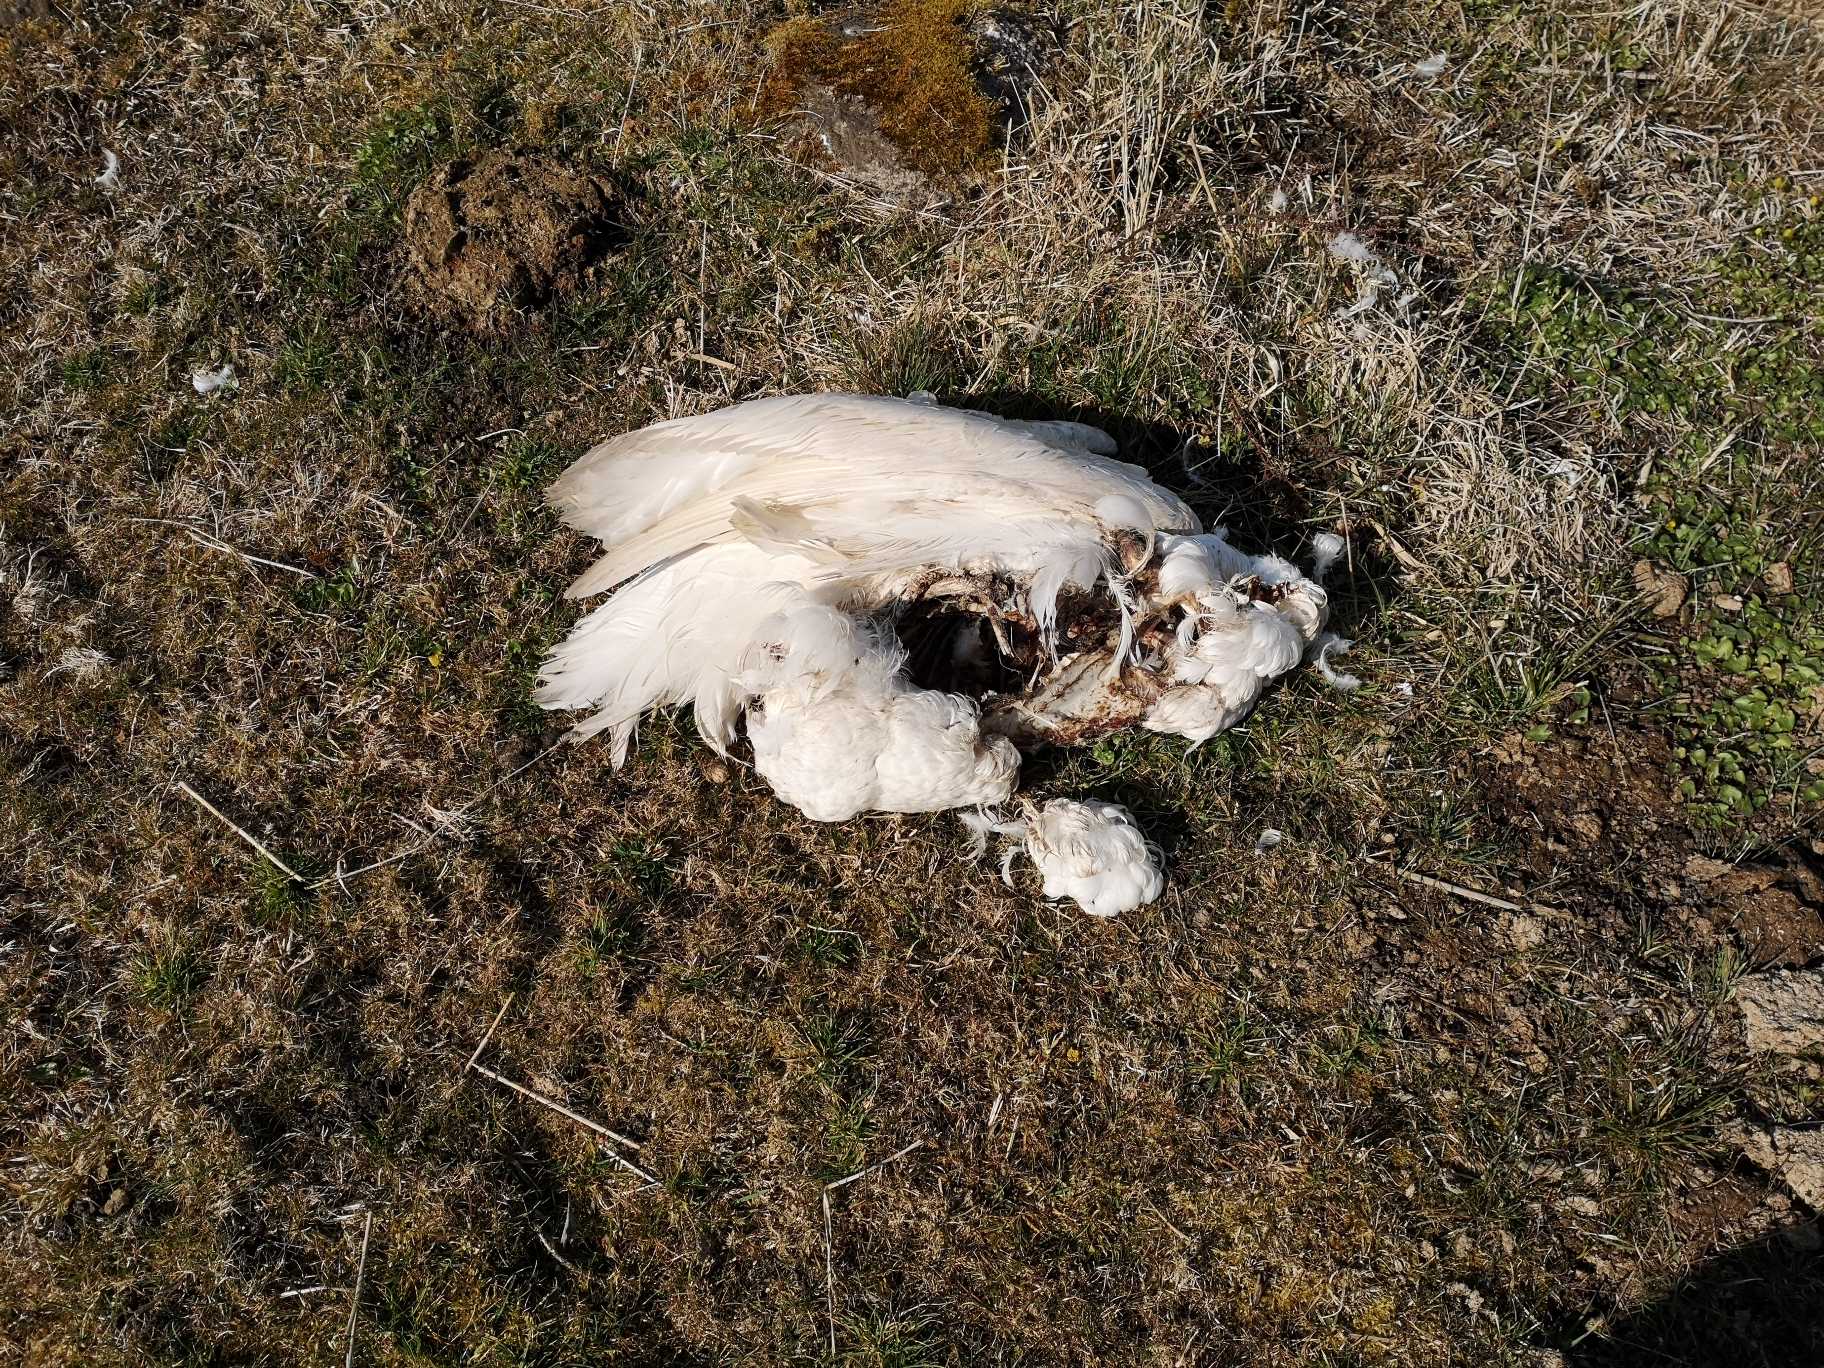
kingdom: Animalia
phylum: Chordata
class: Aves
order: Anseriformes
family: Anatidae
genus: Cygnus
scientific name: Cygnus olor
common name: Knopsvane
